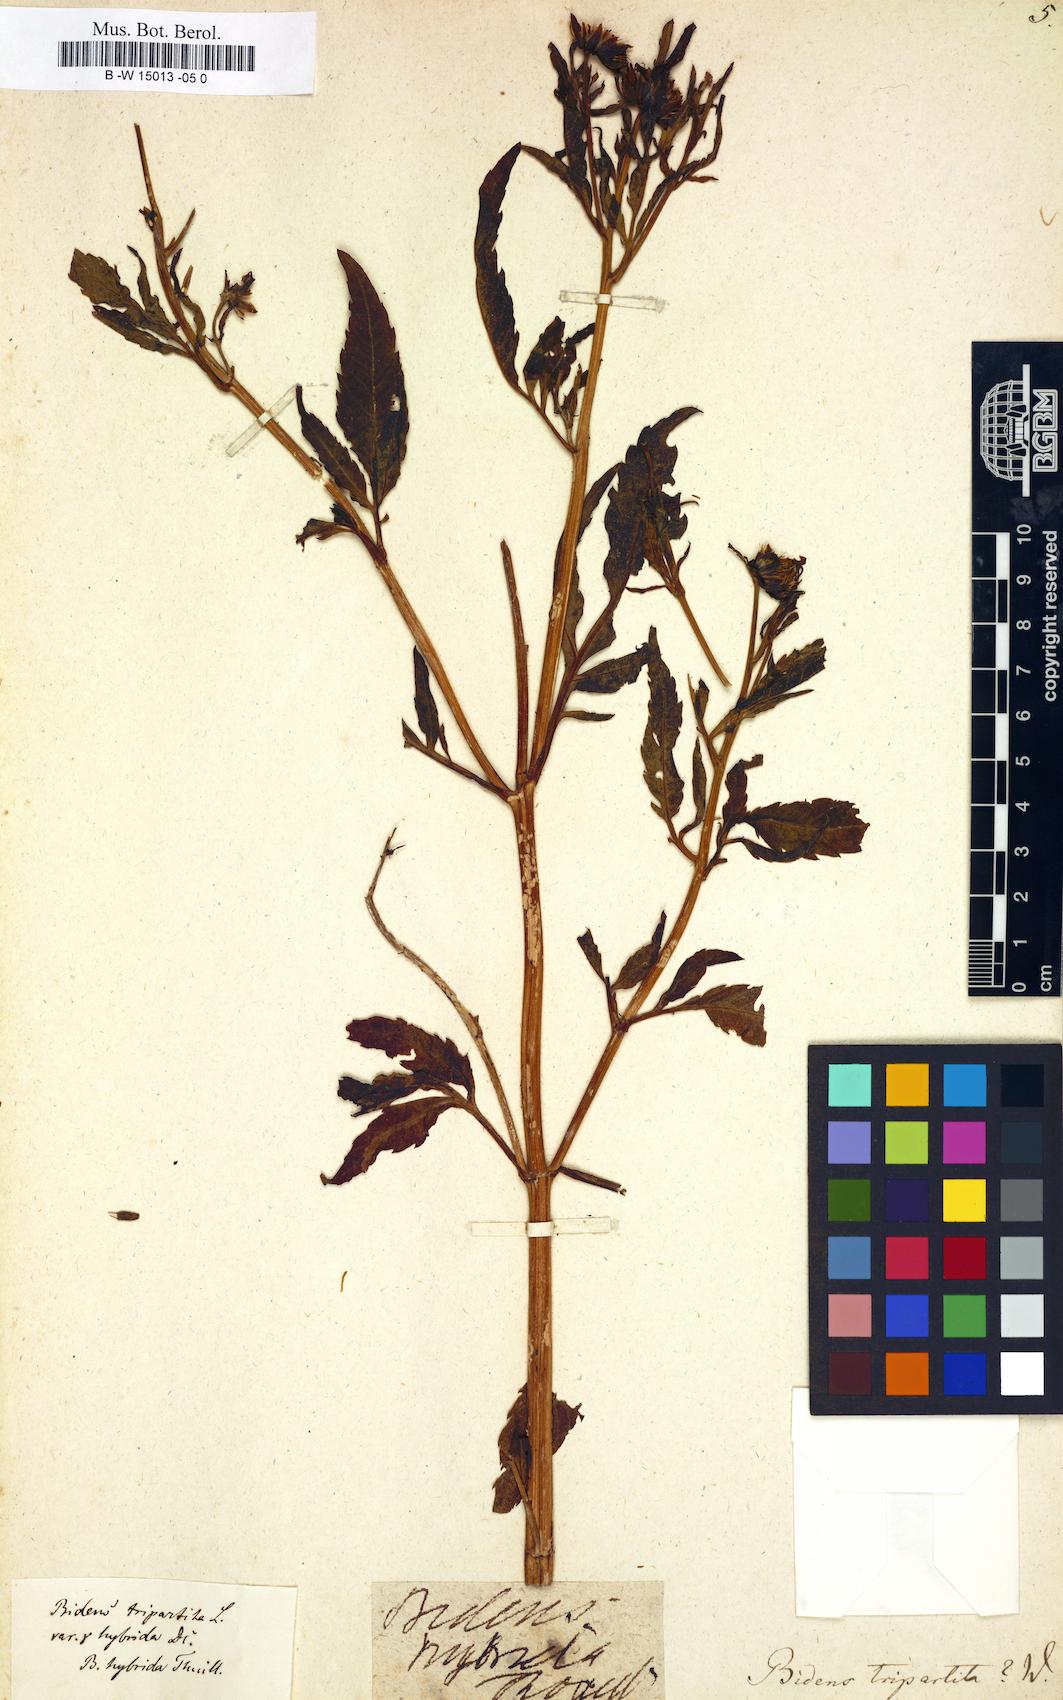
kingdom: Plantae
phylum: Tracheophyta
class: Magnoliopsida
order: Asterales
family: Asteraceae
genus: Bidens
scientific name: Bidens tripartita
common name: Trifid bur-marigold
